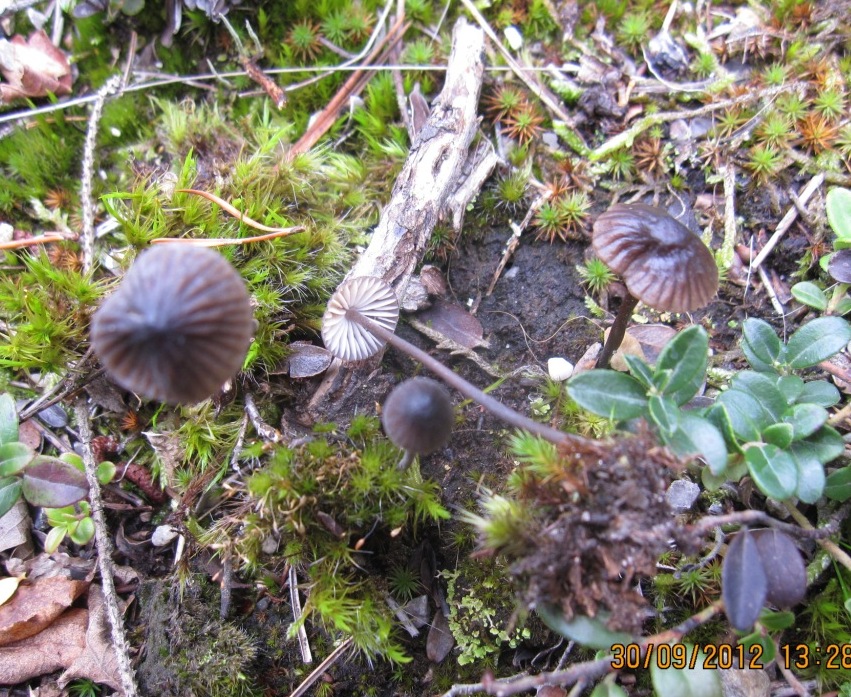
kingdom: Fungi
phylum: Basidiomycota
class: Agaricomycetes
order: Agaricales
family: Mycenaceae
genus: Mycena
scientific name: Mycena galopus
